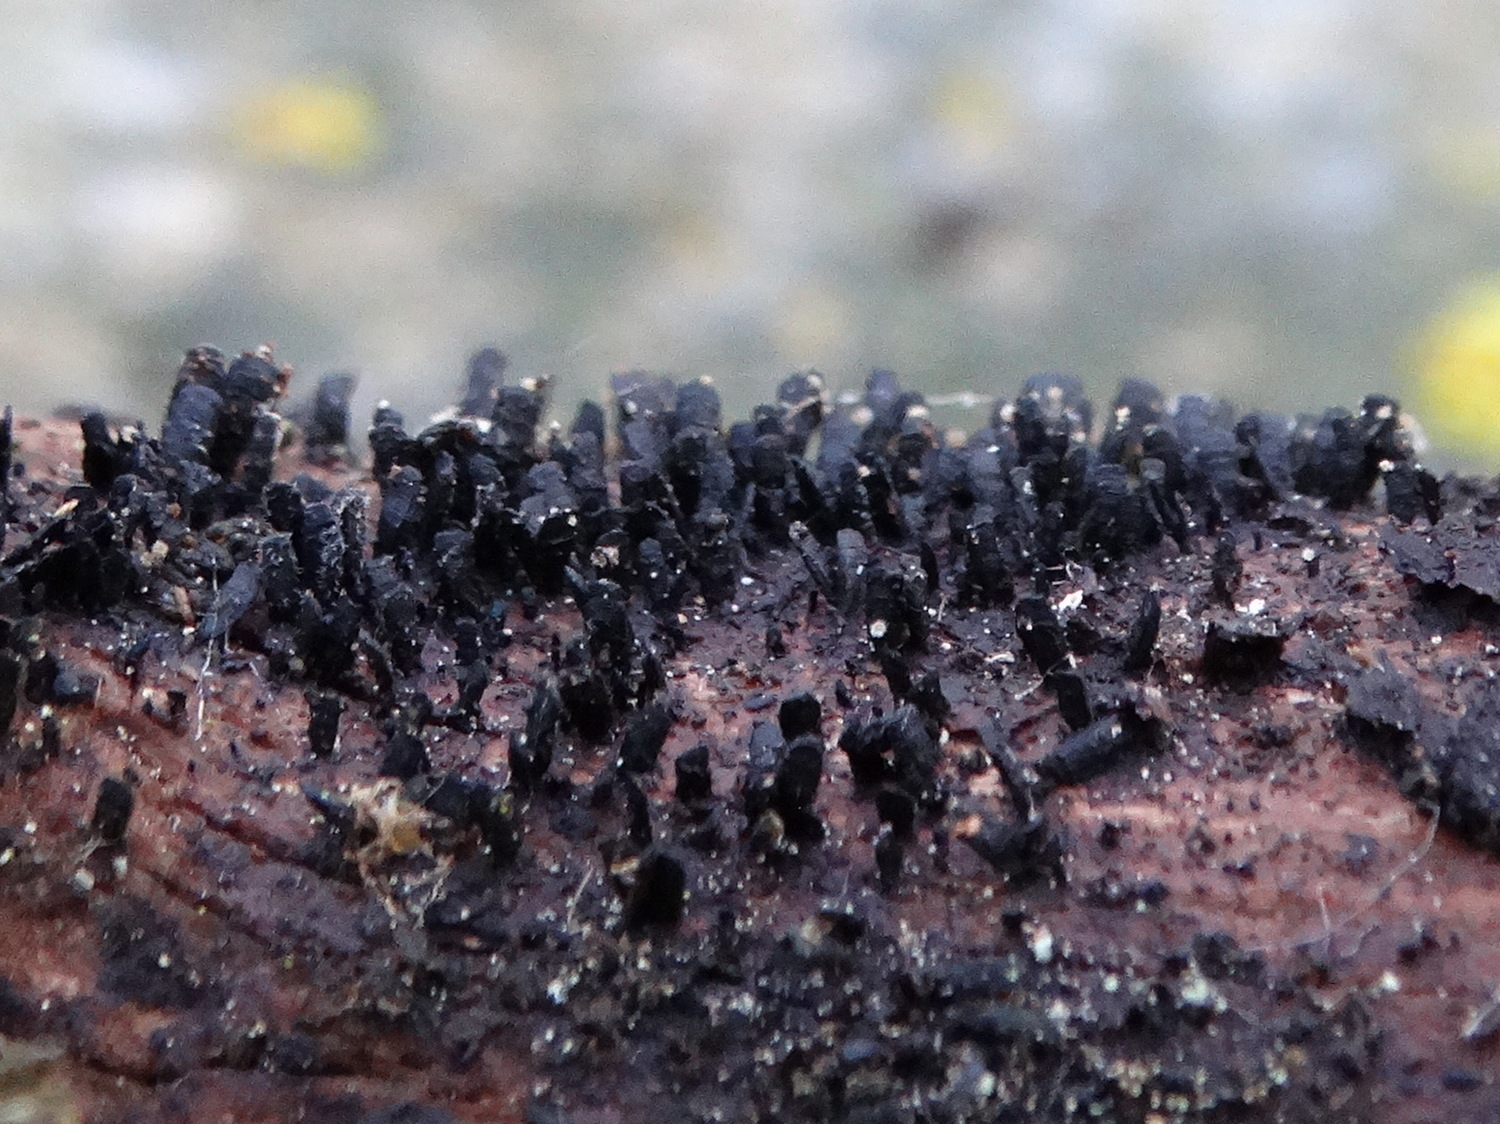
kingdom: Fungi
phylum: Ascomycota
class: Eurotiomycetes
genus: Glyphium
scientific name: Glyphium elatum
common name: kuløkse
